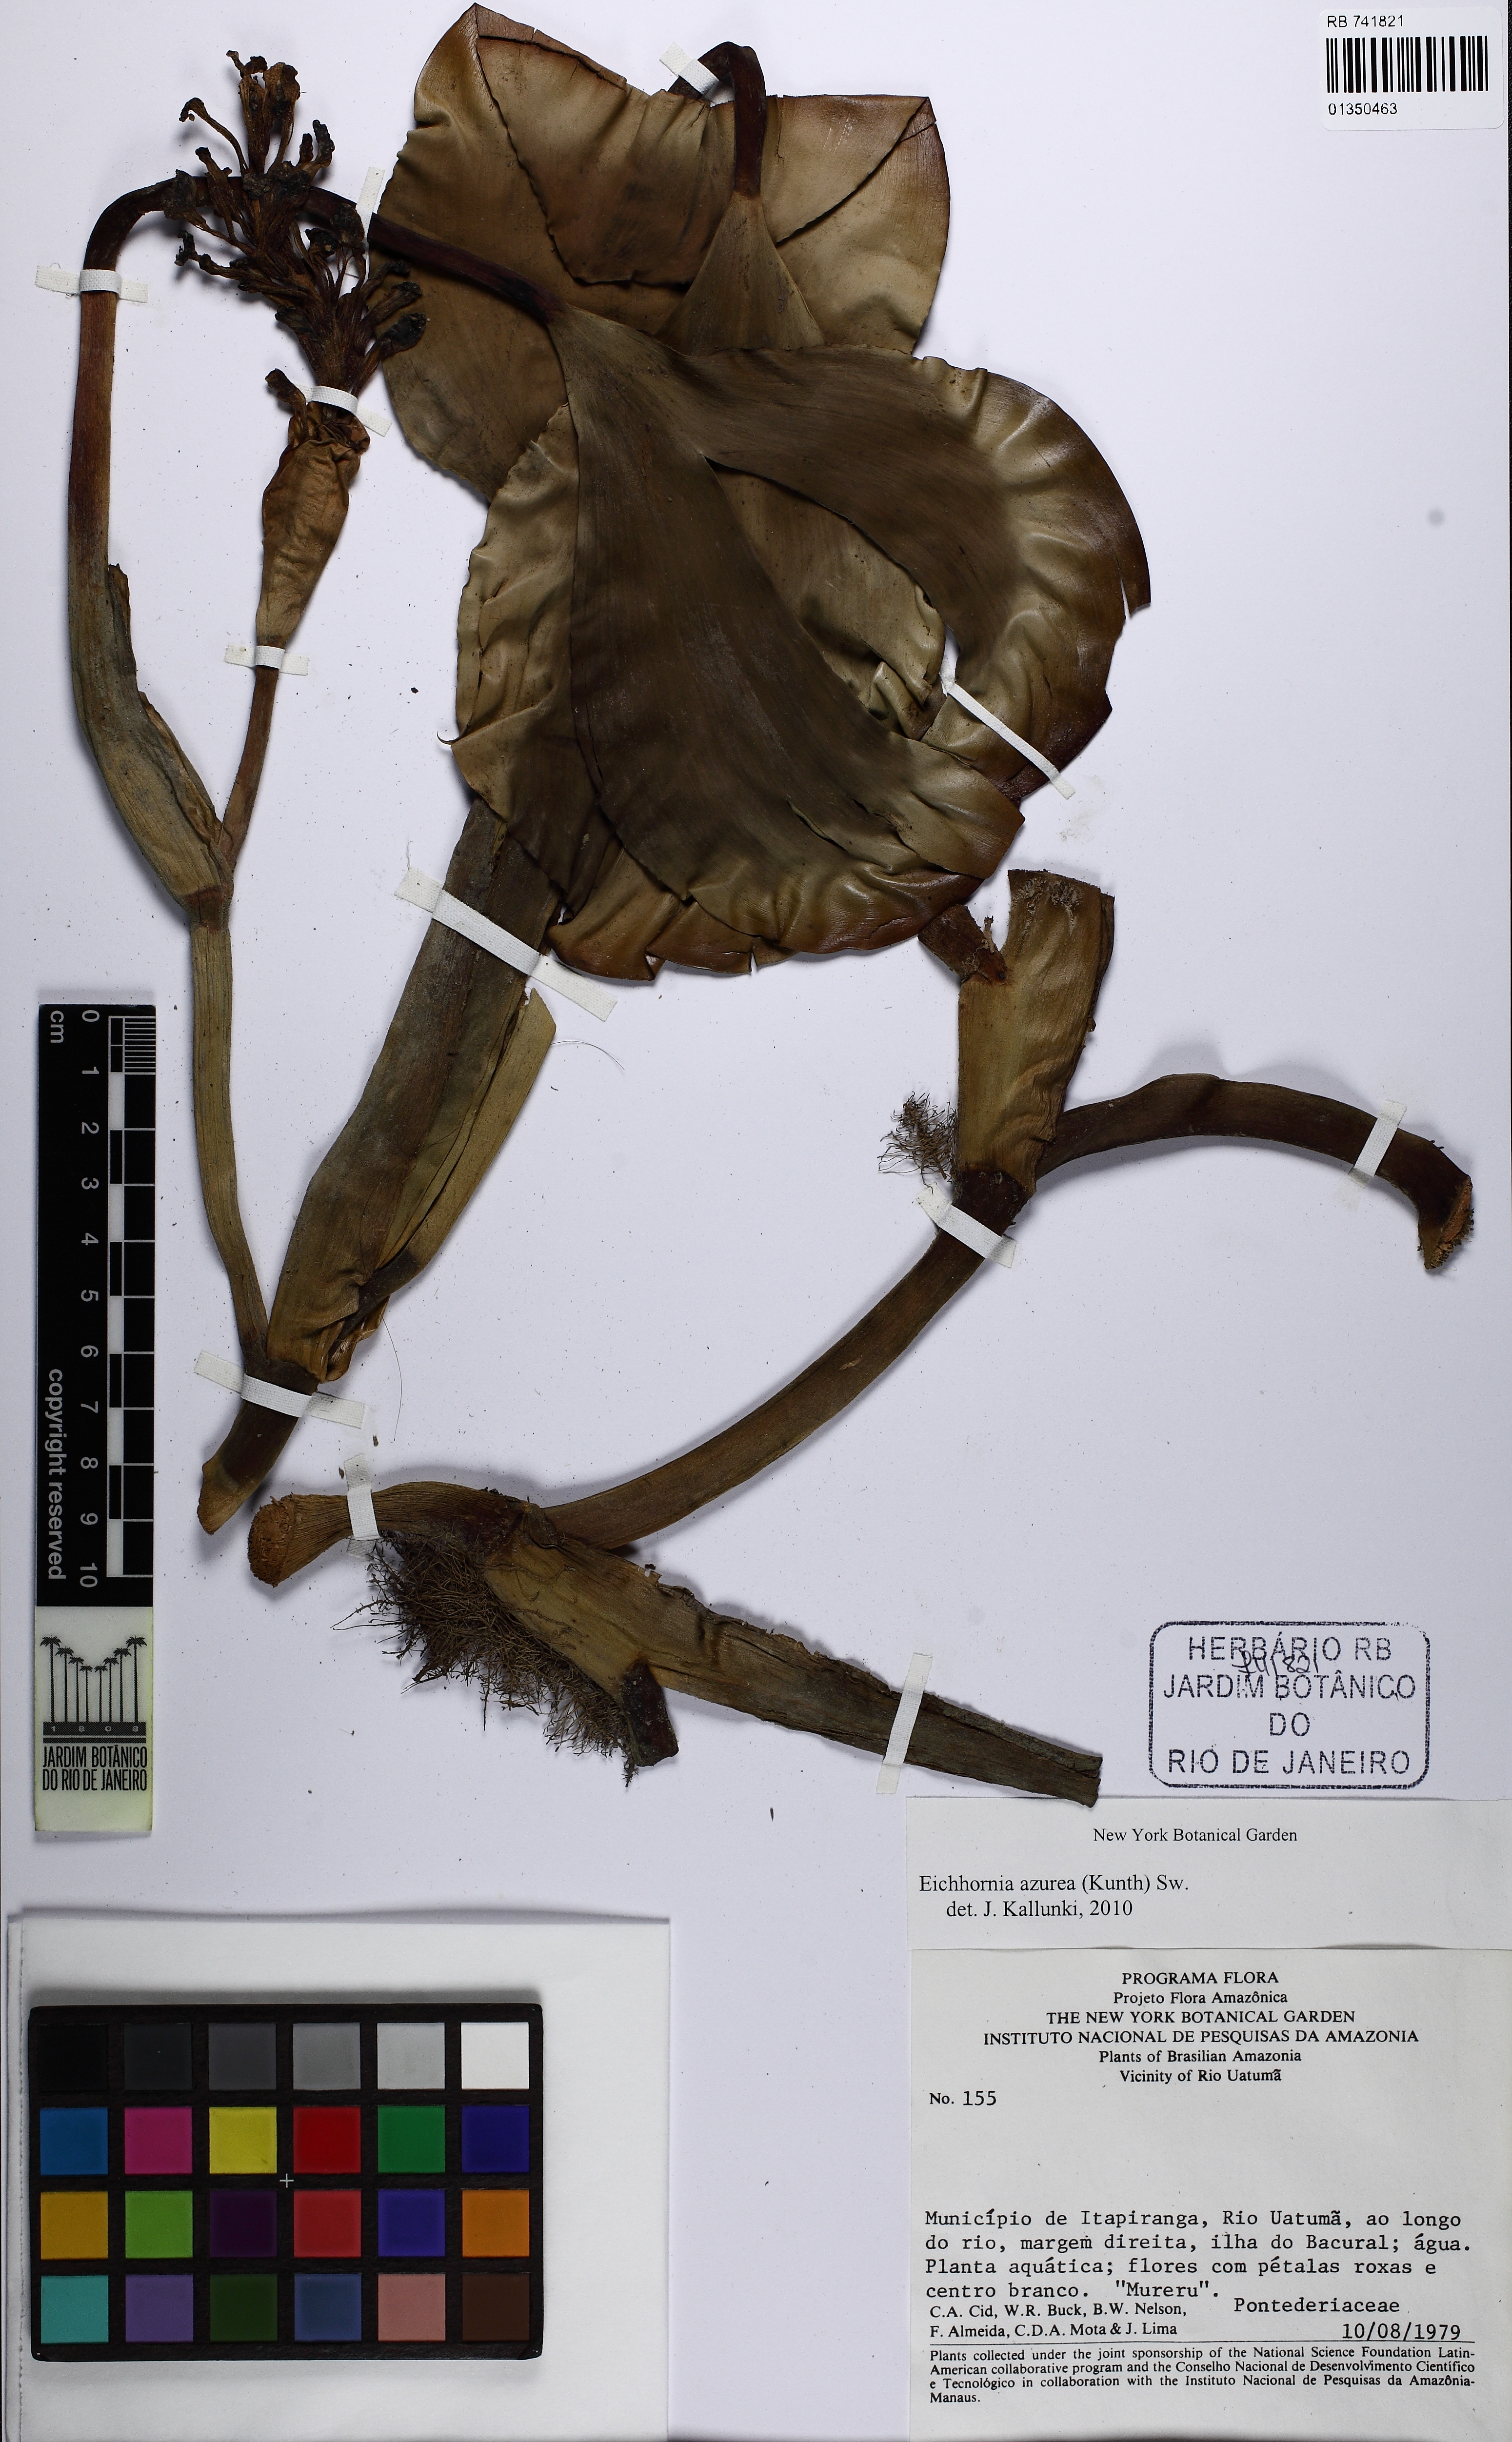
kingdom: Plantae
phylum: Tracheophyta
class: Liliopsida
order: Commelinales
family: Pontederiaceae
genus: Pontederia
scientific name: Pontederia azurea
